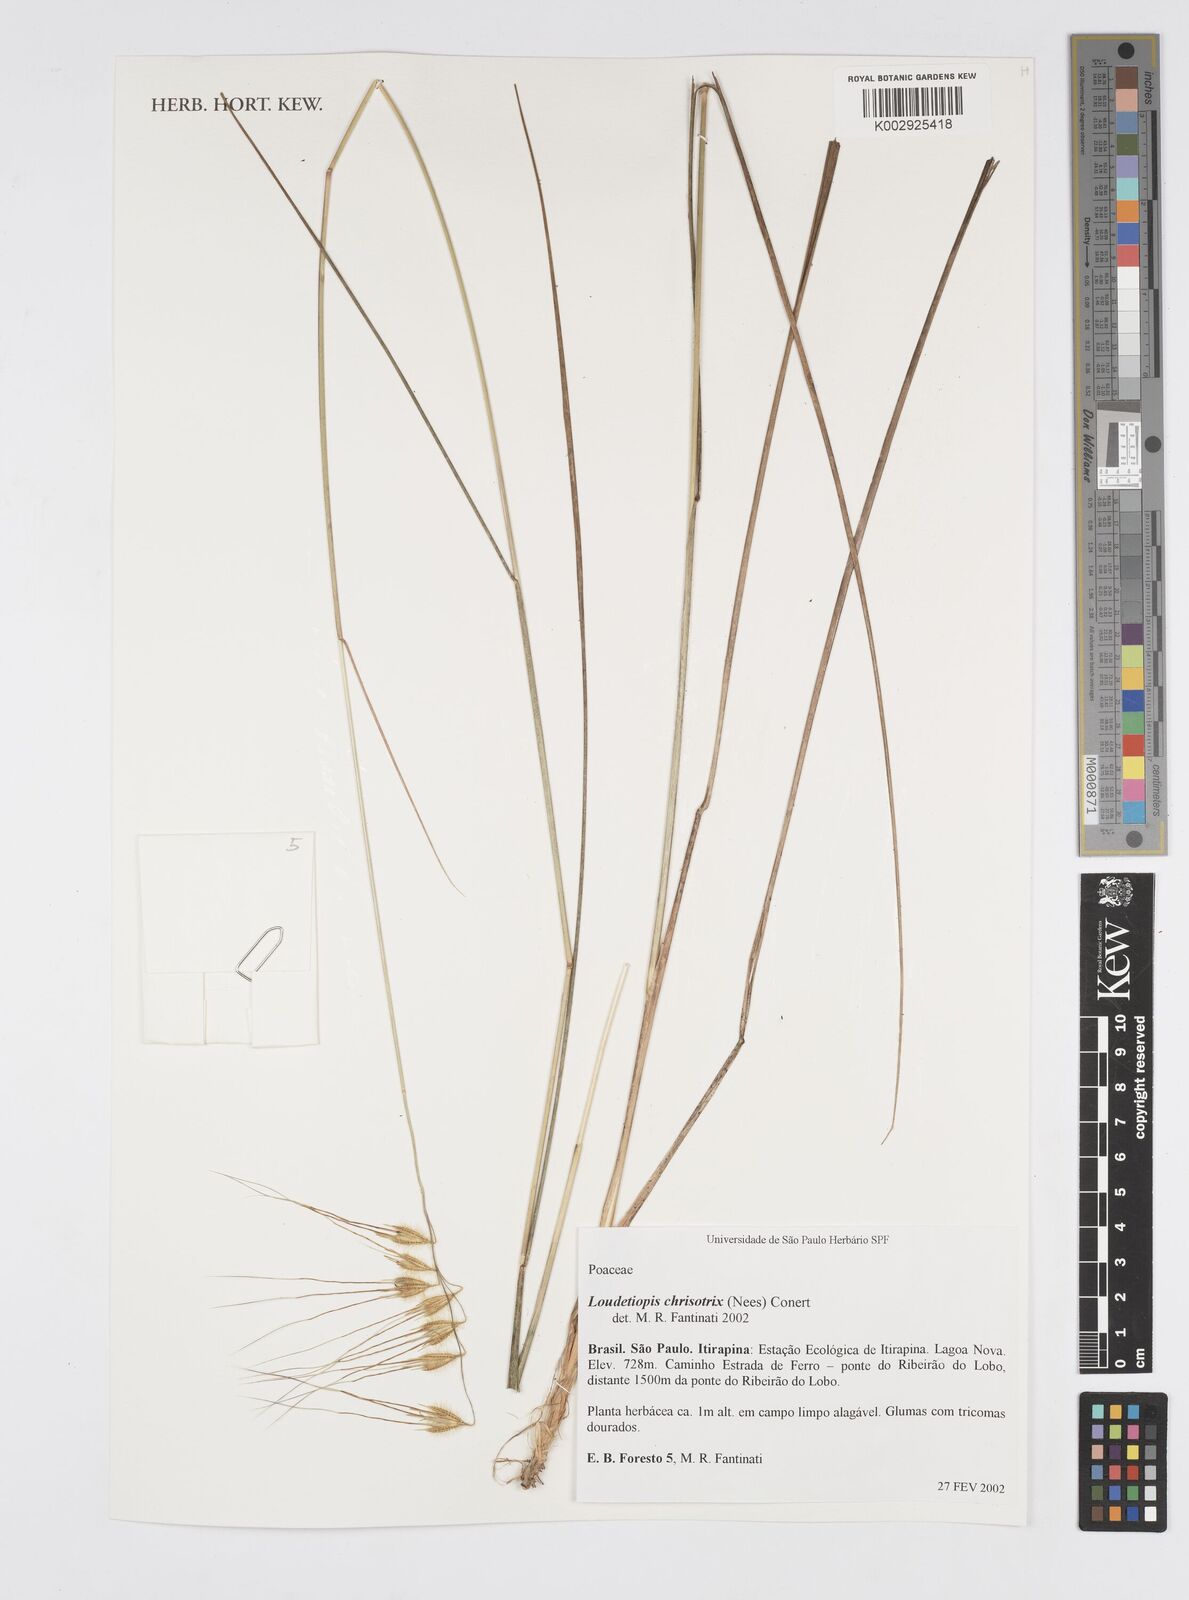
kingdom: Plantae
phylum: Tracheophyta
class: Liliopsida
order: Poales
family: Poaceae
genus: Loudetiopsis
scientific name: Loudetiopsis chrysothrix
